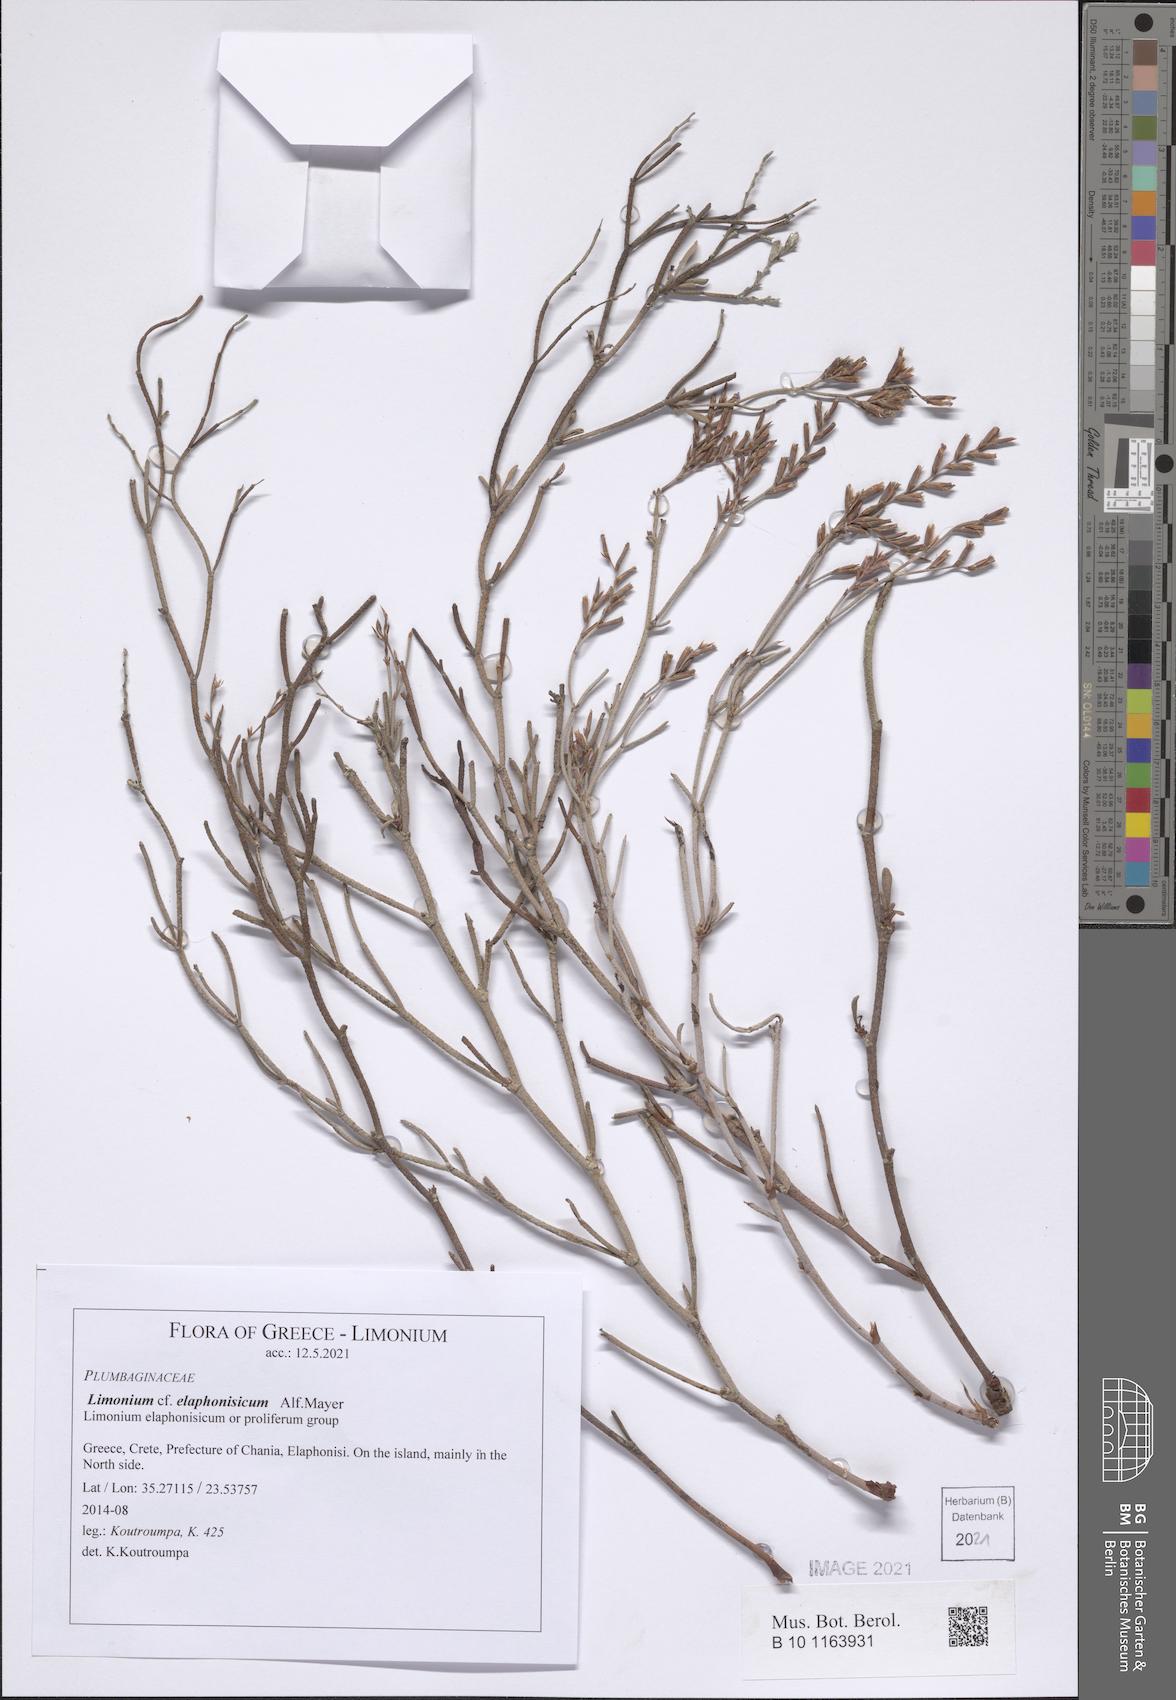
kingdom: Plantae
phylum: Tracheophyta
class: Magnoliopsida
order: Caryophyllales
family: Plumbaginaceae
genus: Limonium
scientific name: Limonium elaphonisicum
